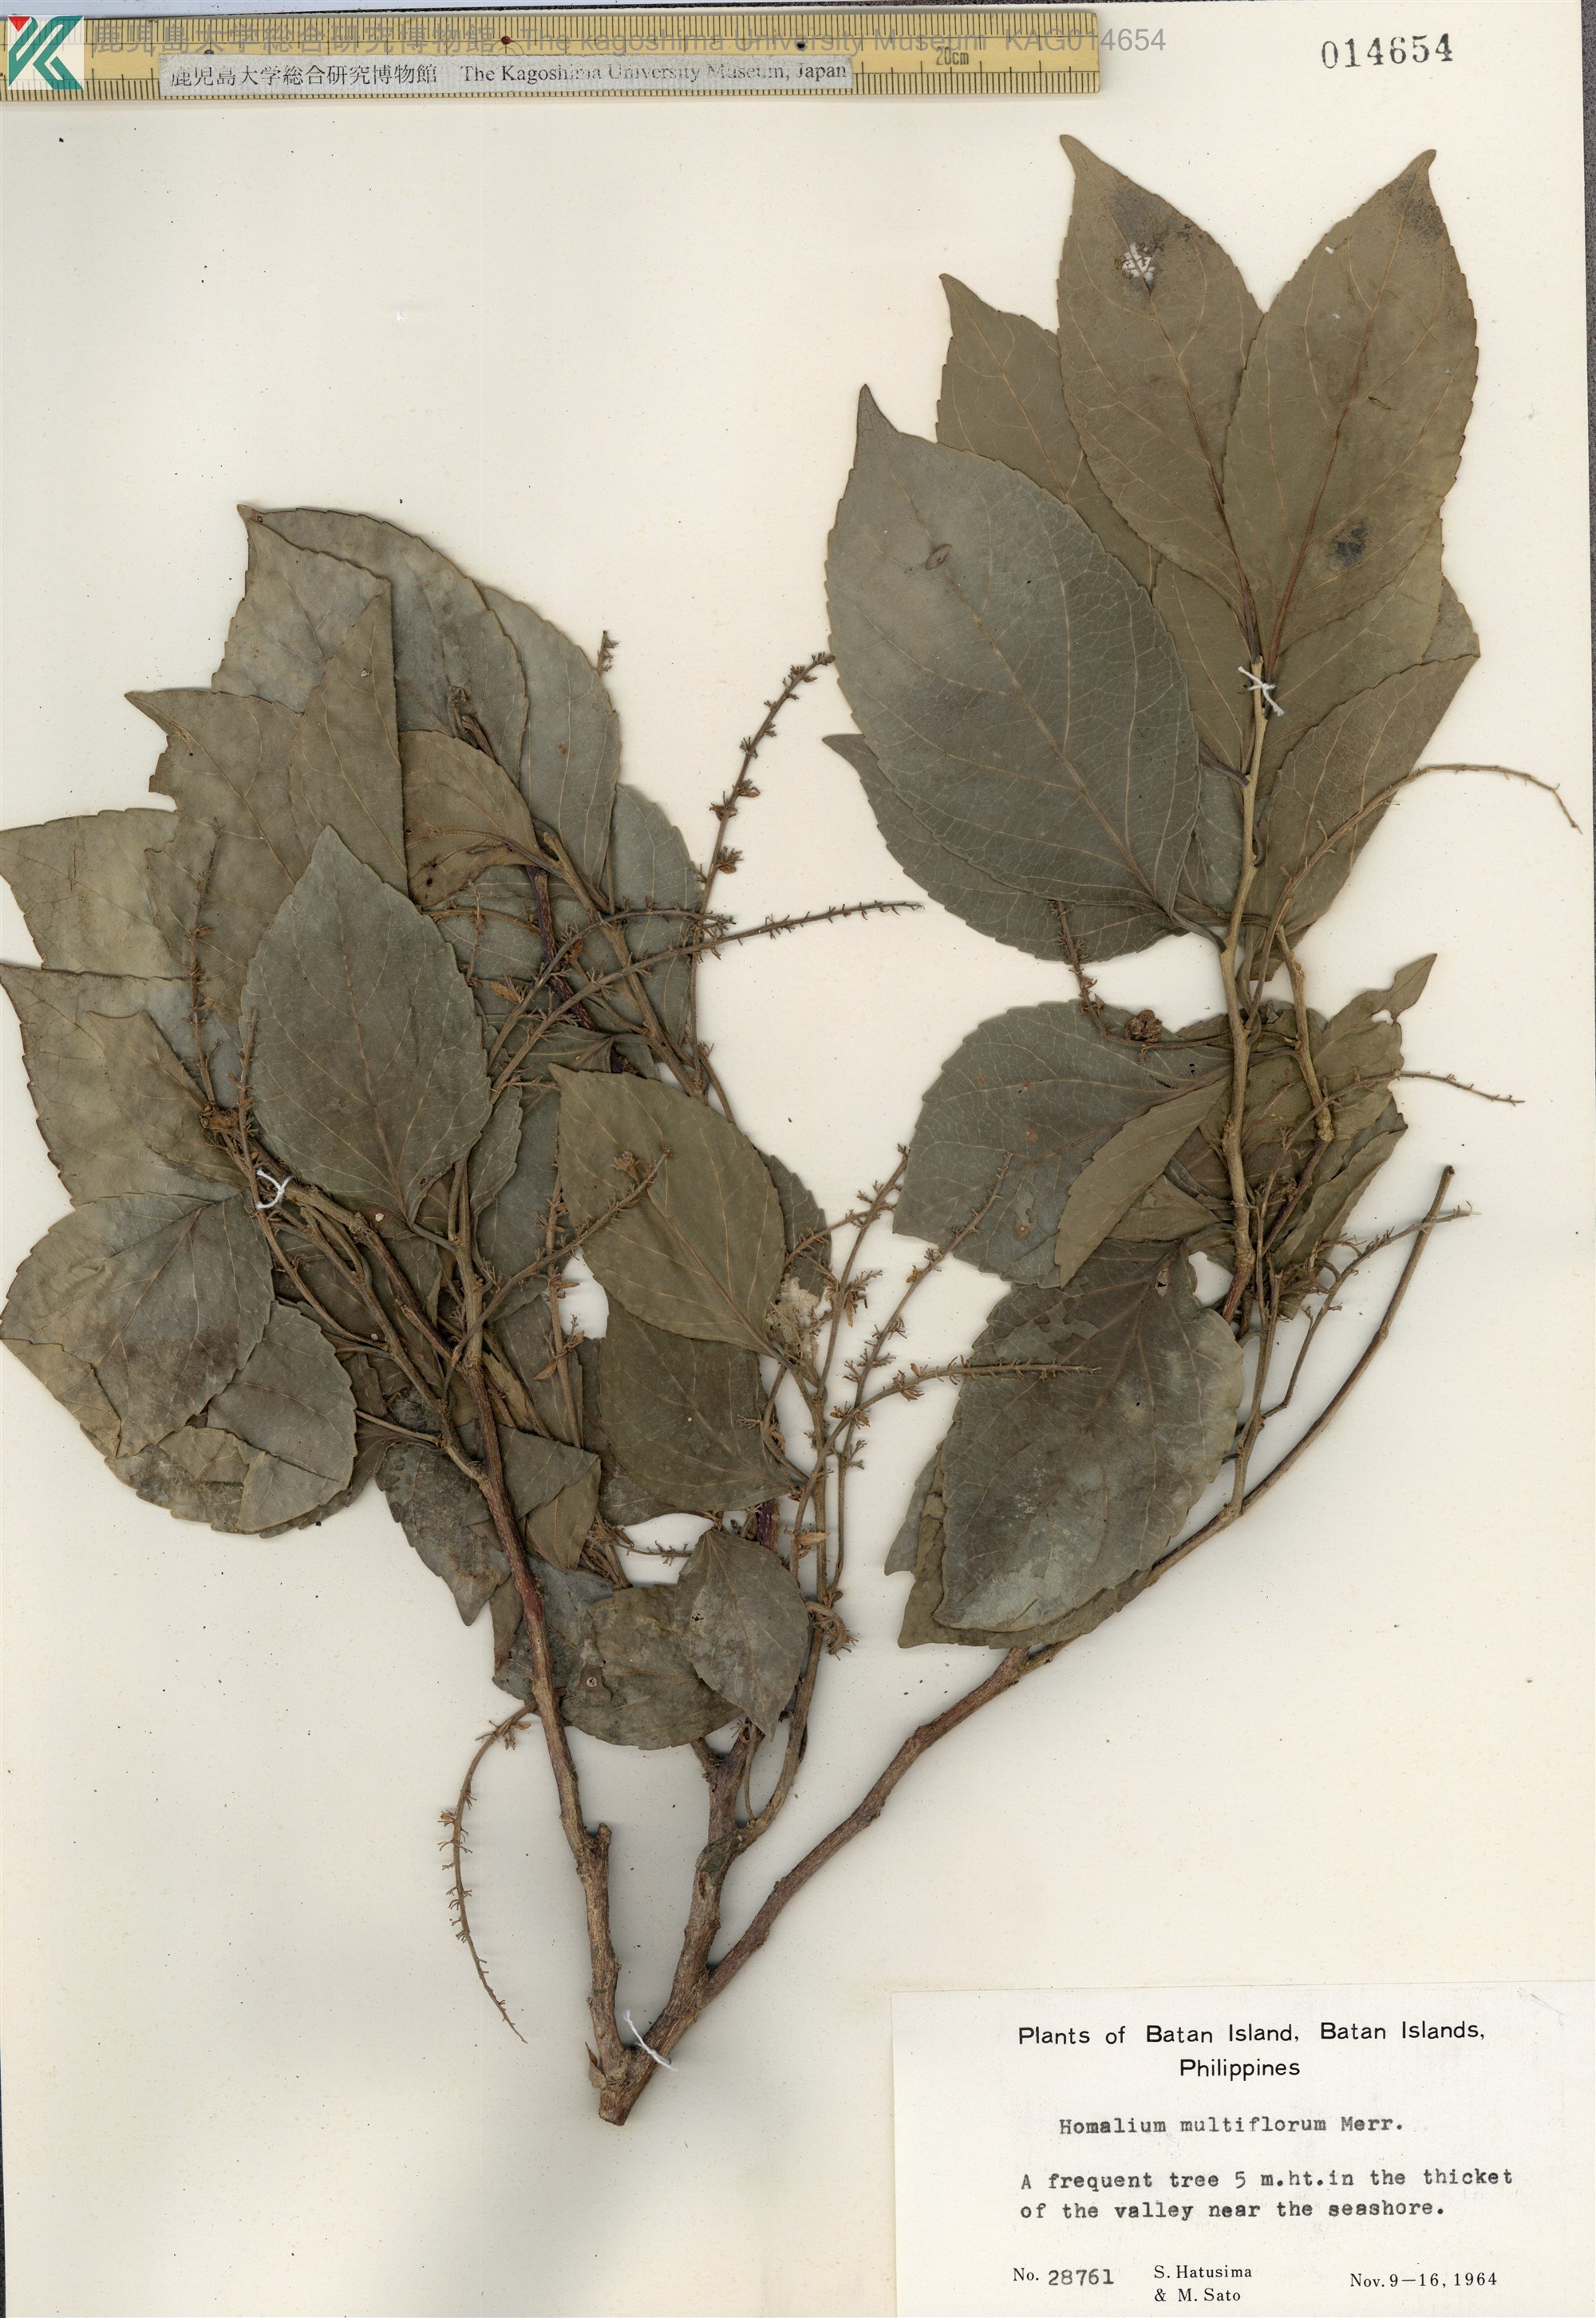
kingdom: Plantae
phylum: Tracheophyta
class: Magnoliopsida
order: Malpighiales
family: Salicaceae
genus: Homalium
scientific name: Homalium multiflorum
